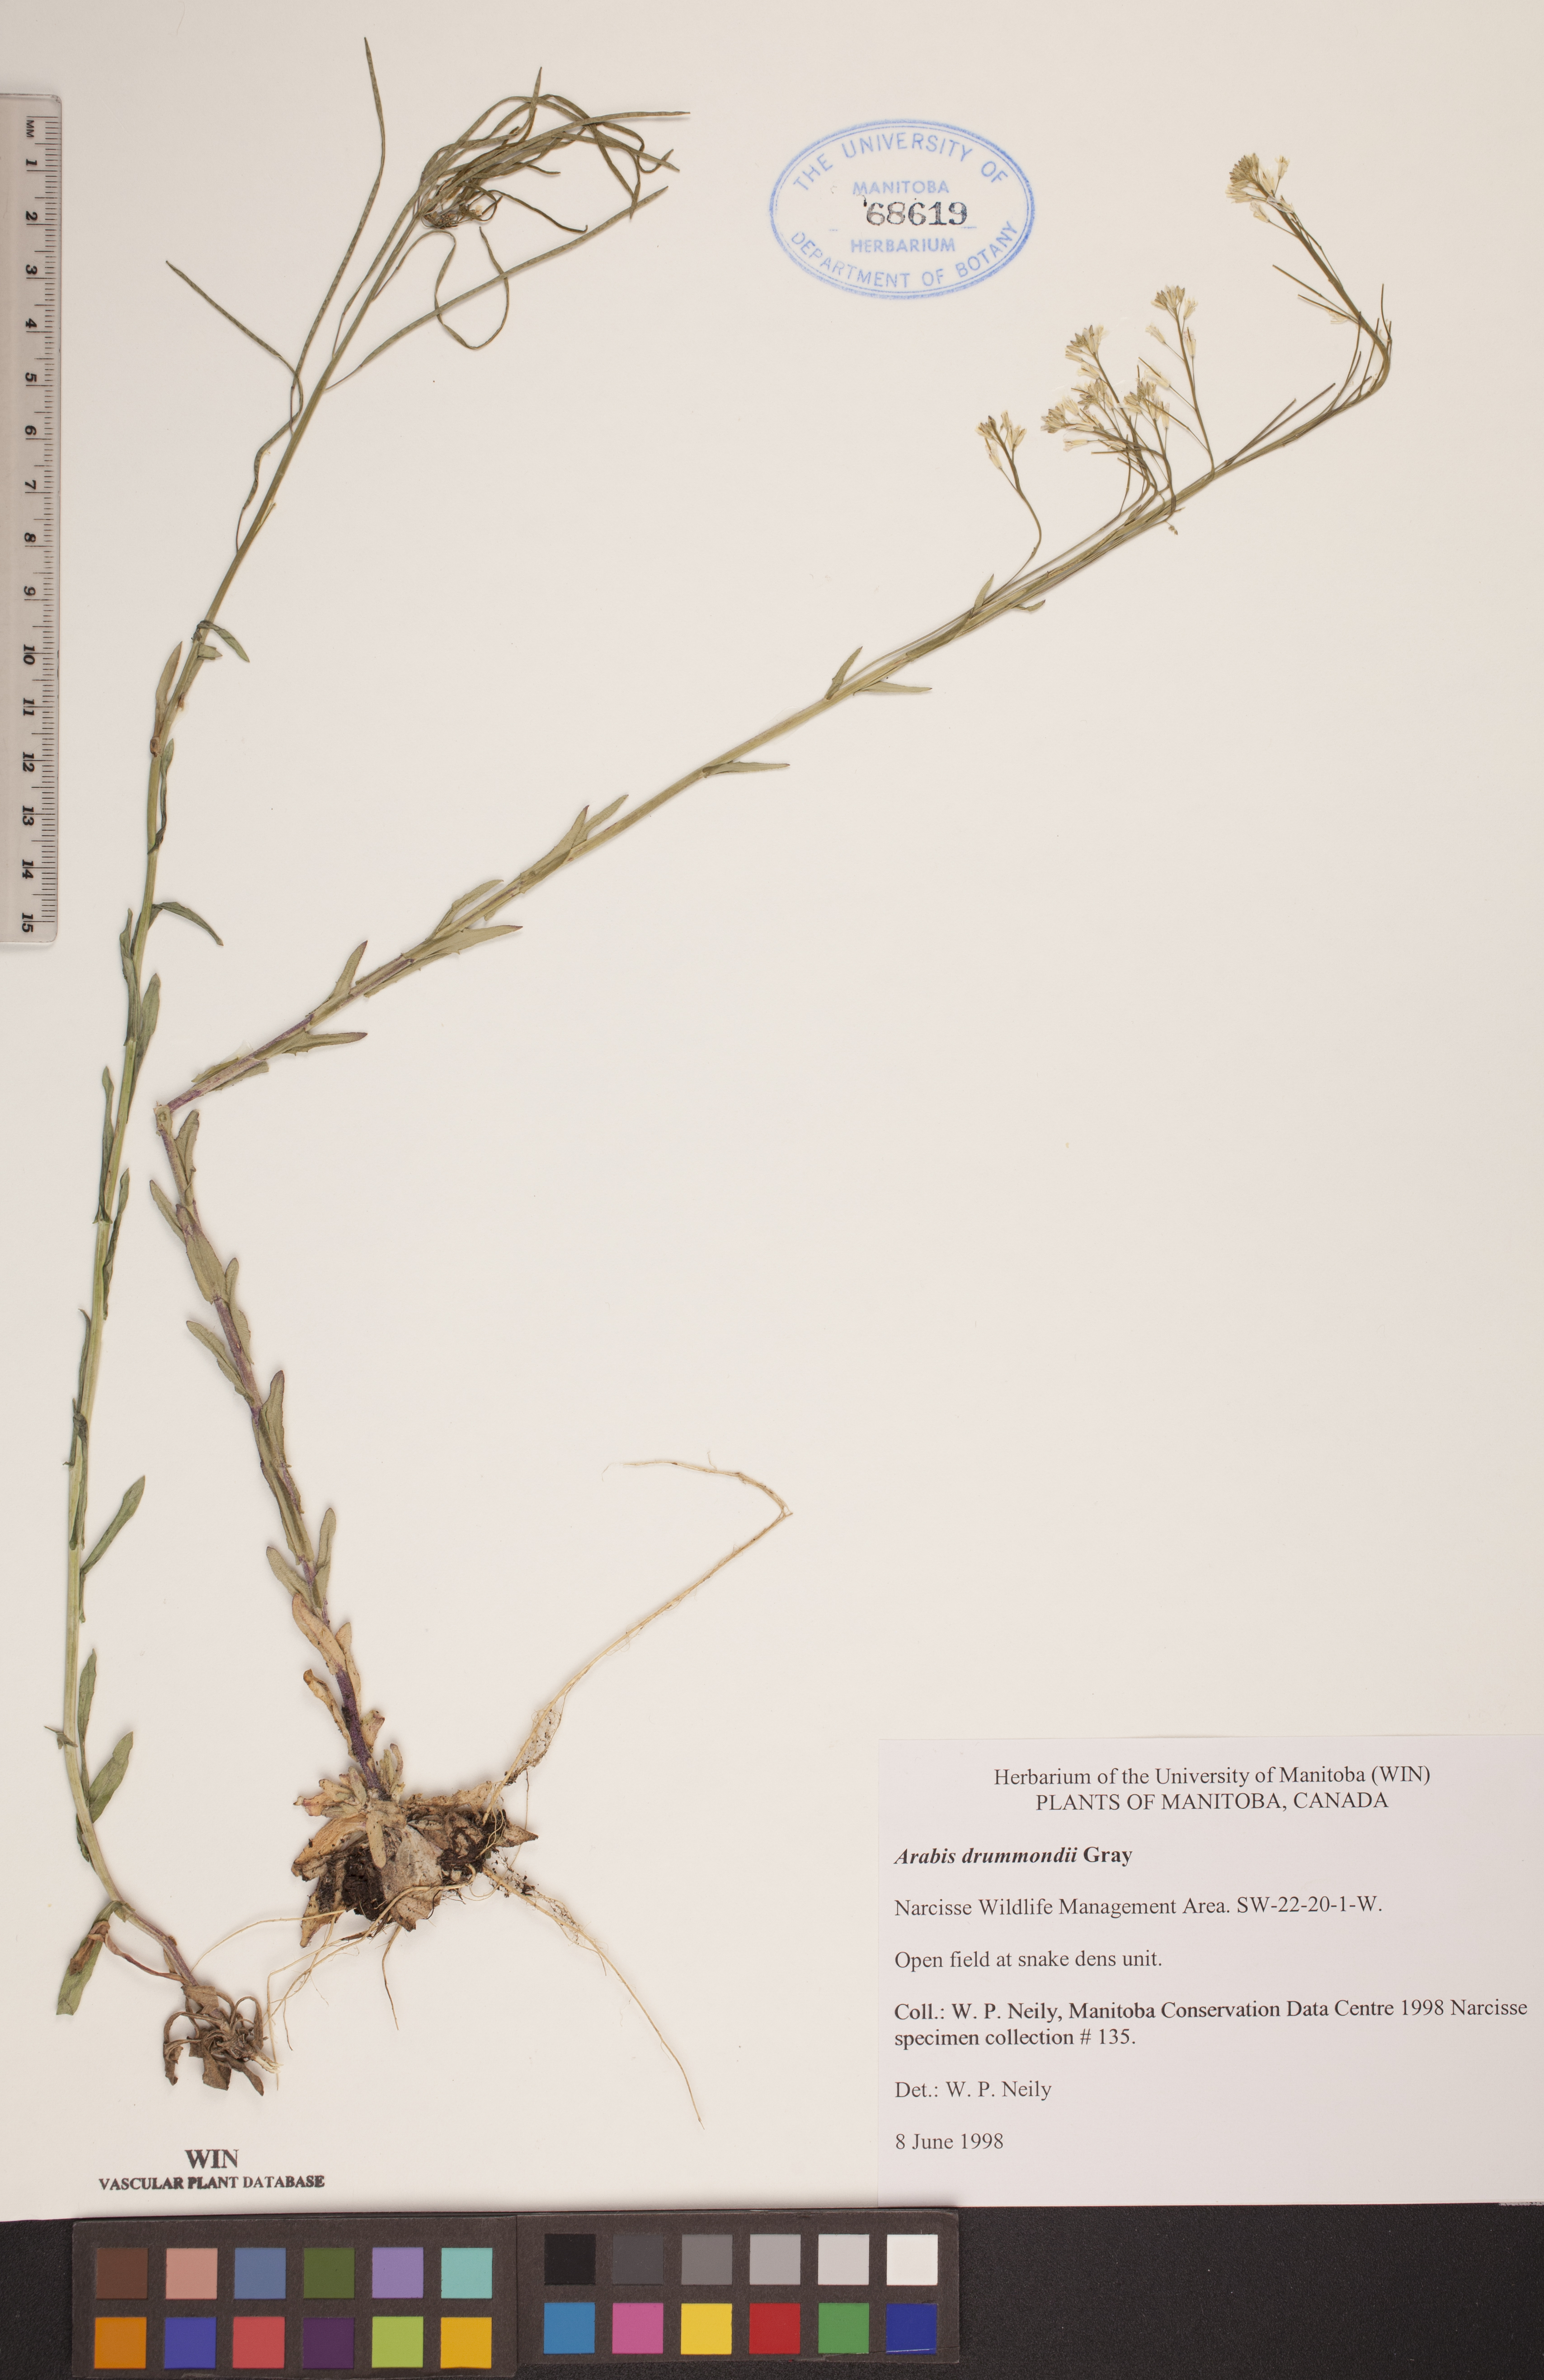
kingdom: Plantae
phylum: Tracheophyta
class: Magnoliopsida
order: Brassicales
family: Brassicaceae
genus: Boechera
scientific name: Boechera stricta
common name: Canadian rockcress
